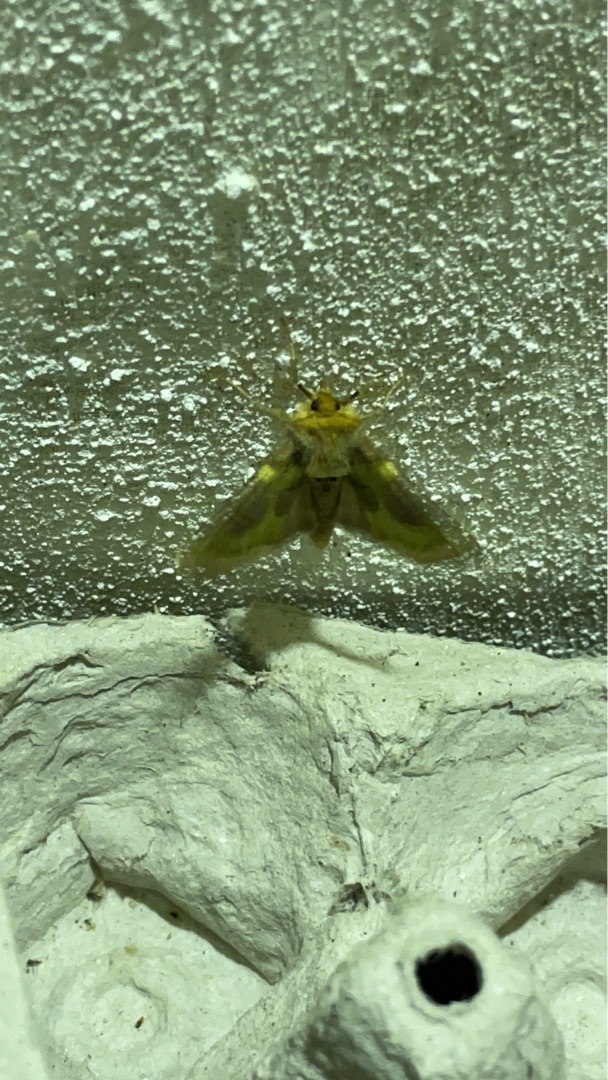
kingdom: Animalia
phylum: Arthropoda
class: Insecta
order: Lepidoptera
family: Noctuidae
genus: Diachrysia
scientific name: Diachrysia stenochrysis
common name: Udelt messingugle
